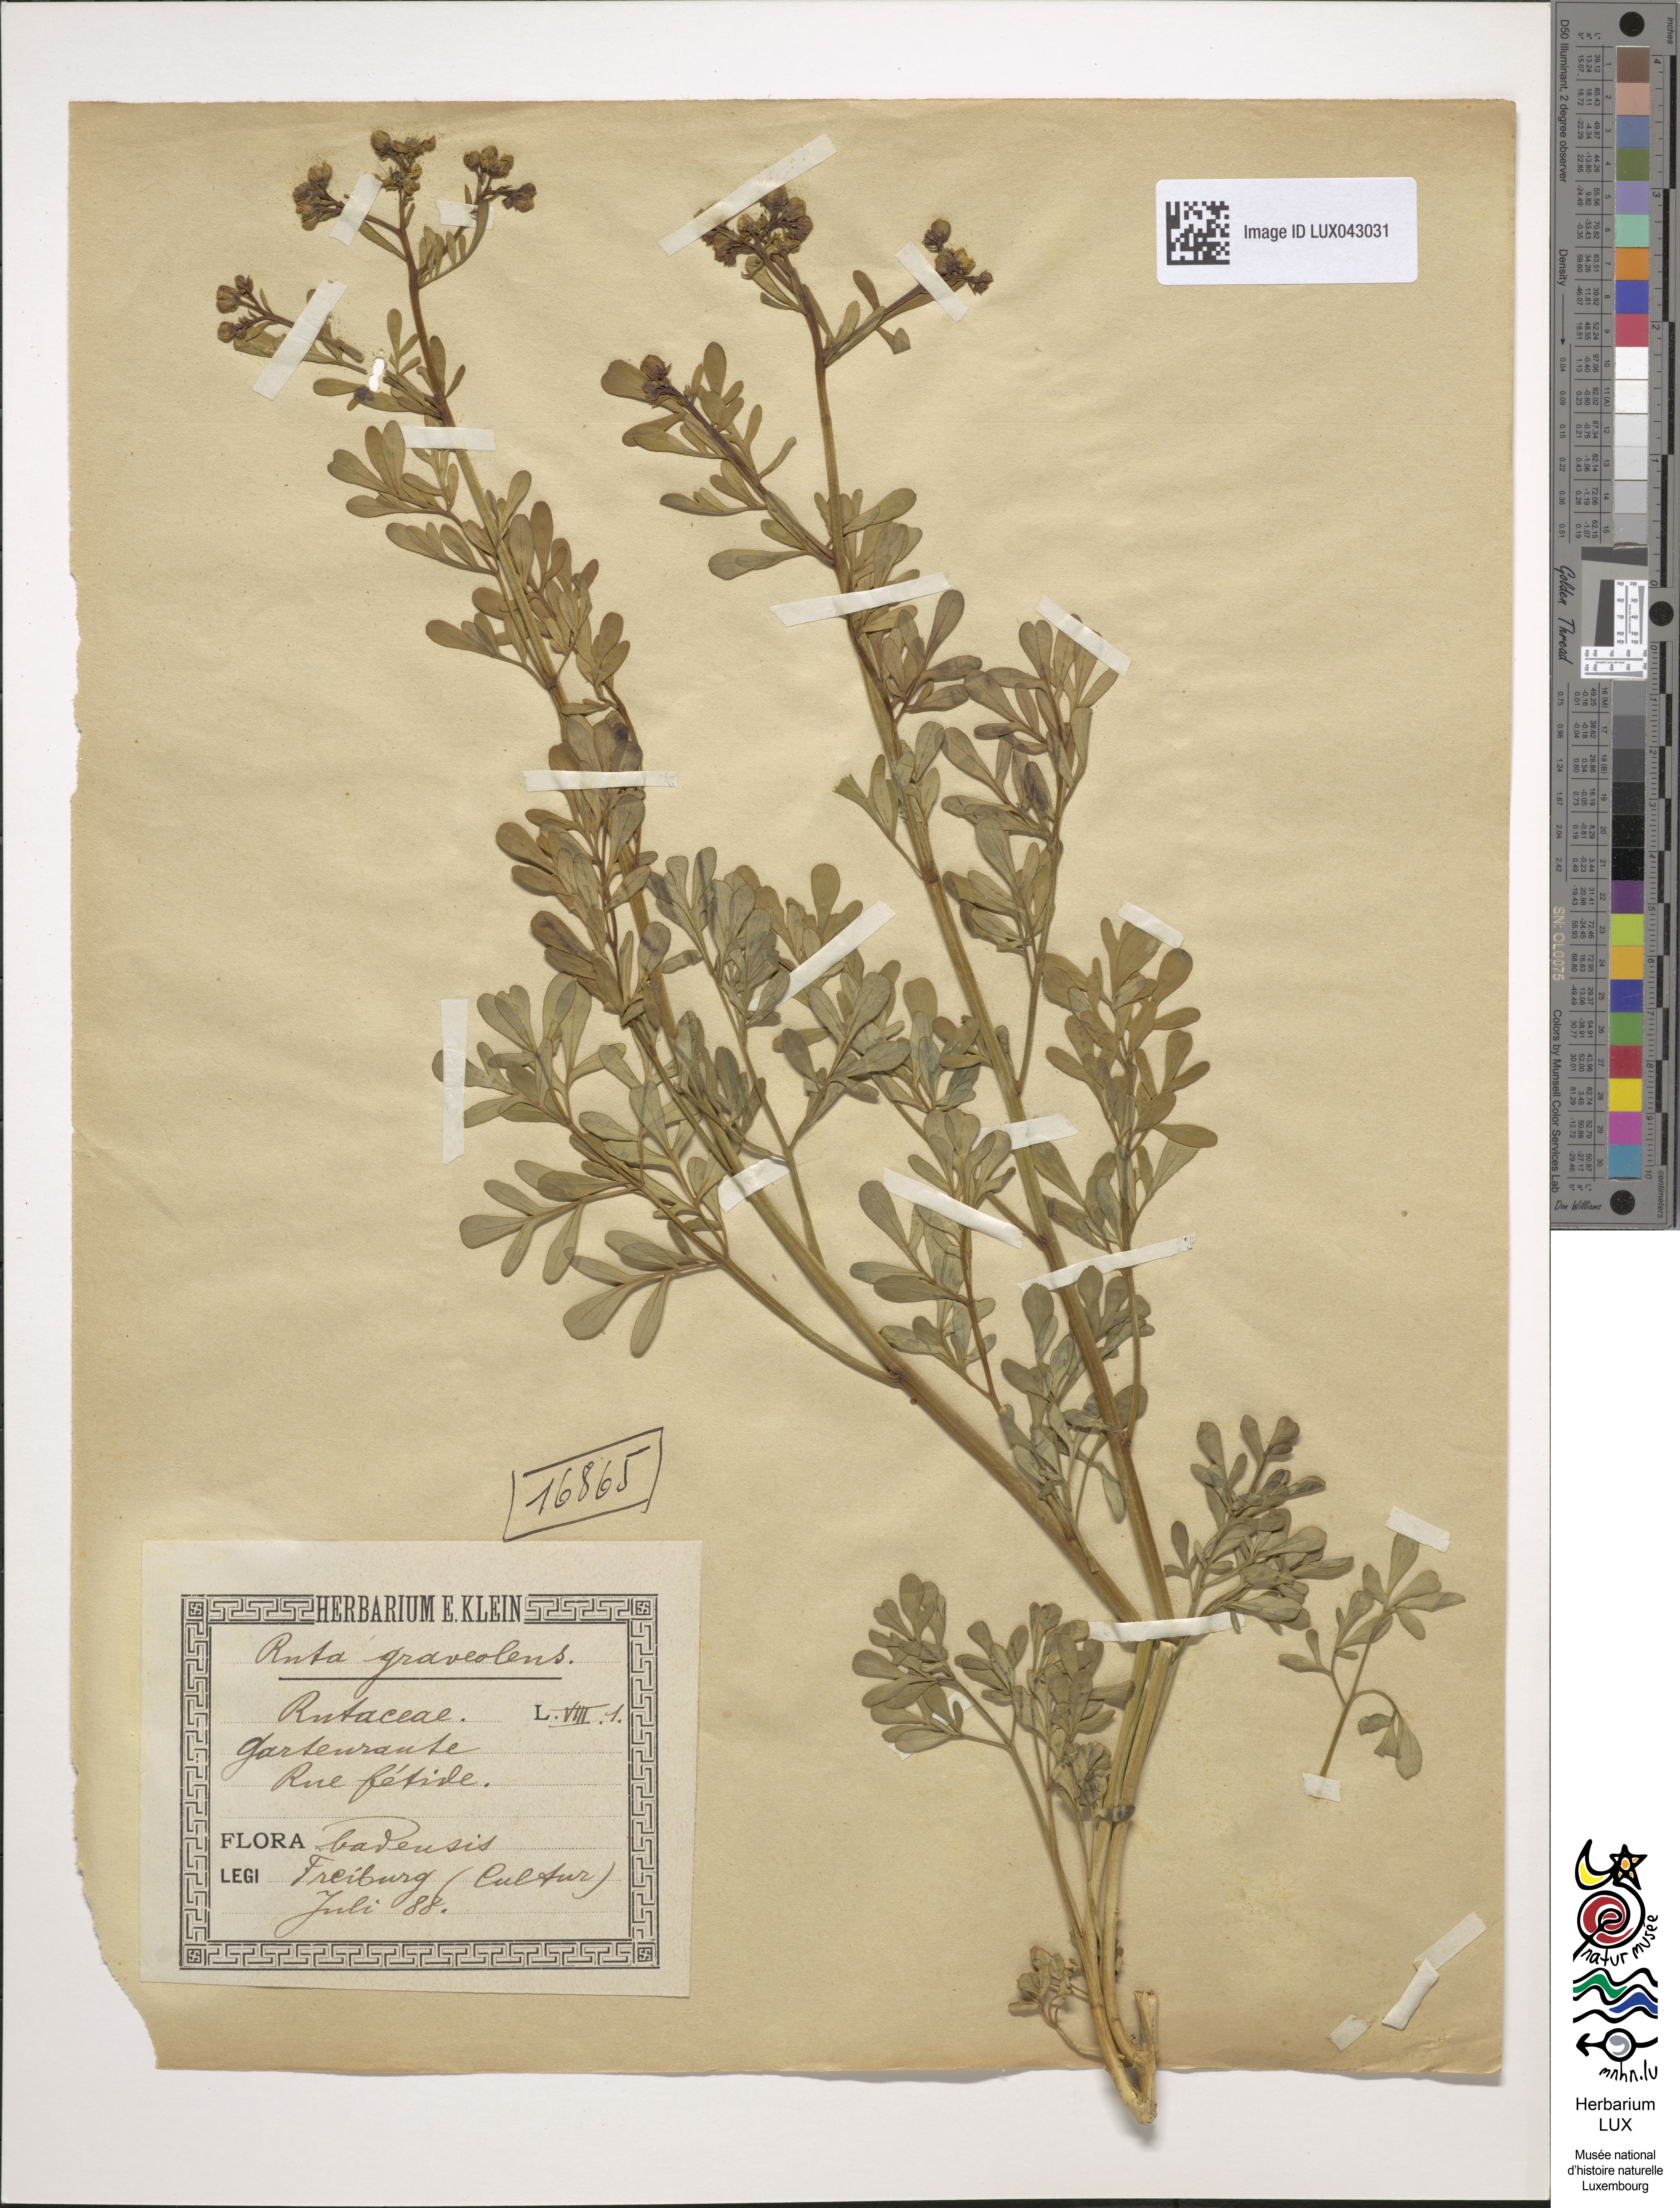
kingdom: Plantae
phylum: Tracheophyta
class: Magnoliopsida
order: Sapindales
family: Rutaceae
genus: Ruta
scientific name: Ruta graveolens
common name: Common rue
